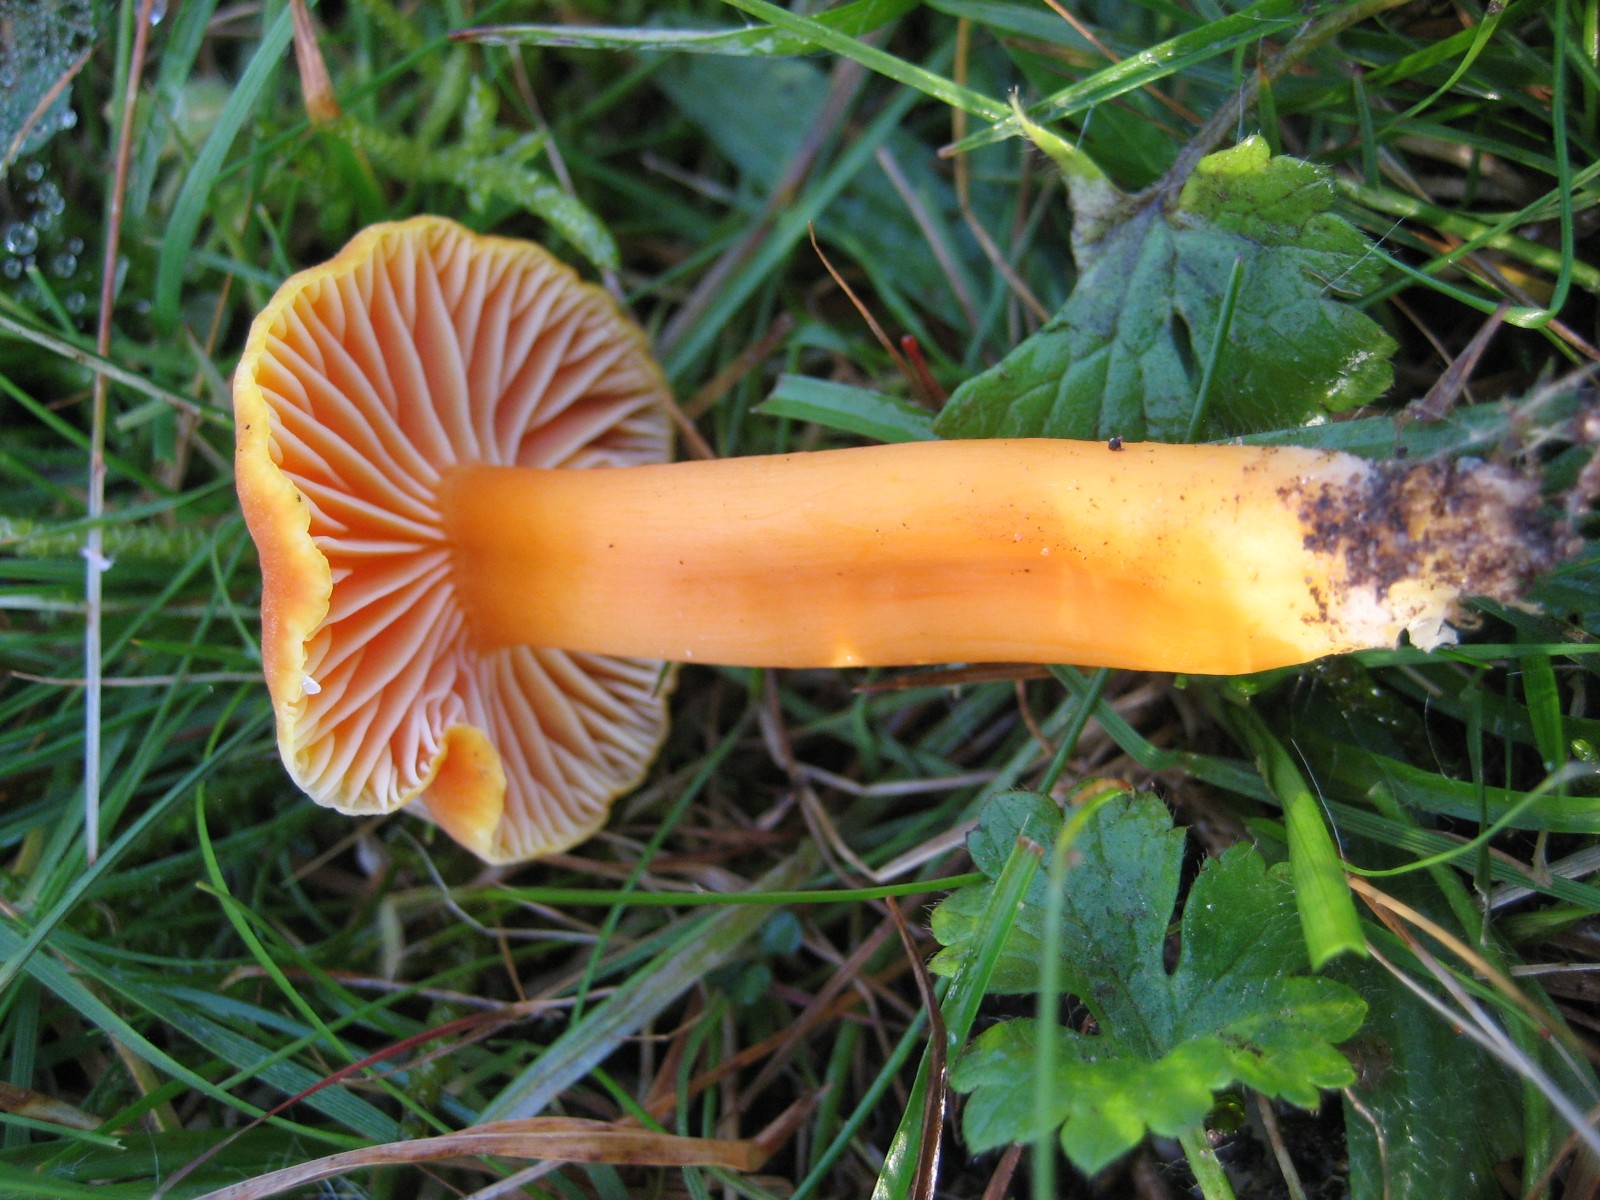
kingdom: Fungi
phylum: Basidiomycota
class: Agaricomycetes
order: Agaricales
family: Hygrophoraceae
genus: Hygrocybe
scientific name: Hygrocybe miniata
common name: mønje-vokshat
